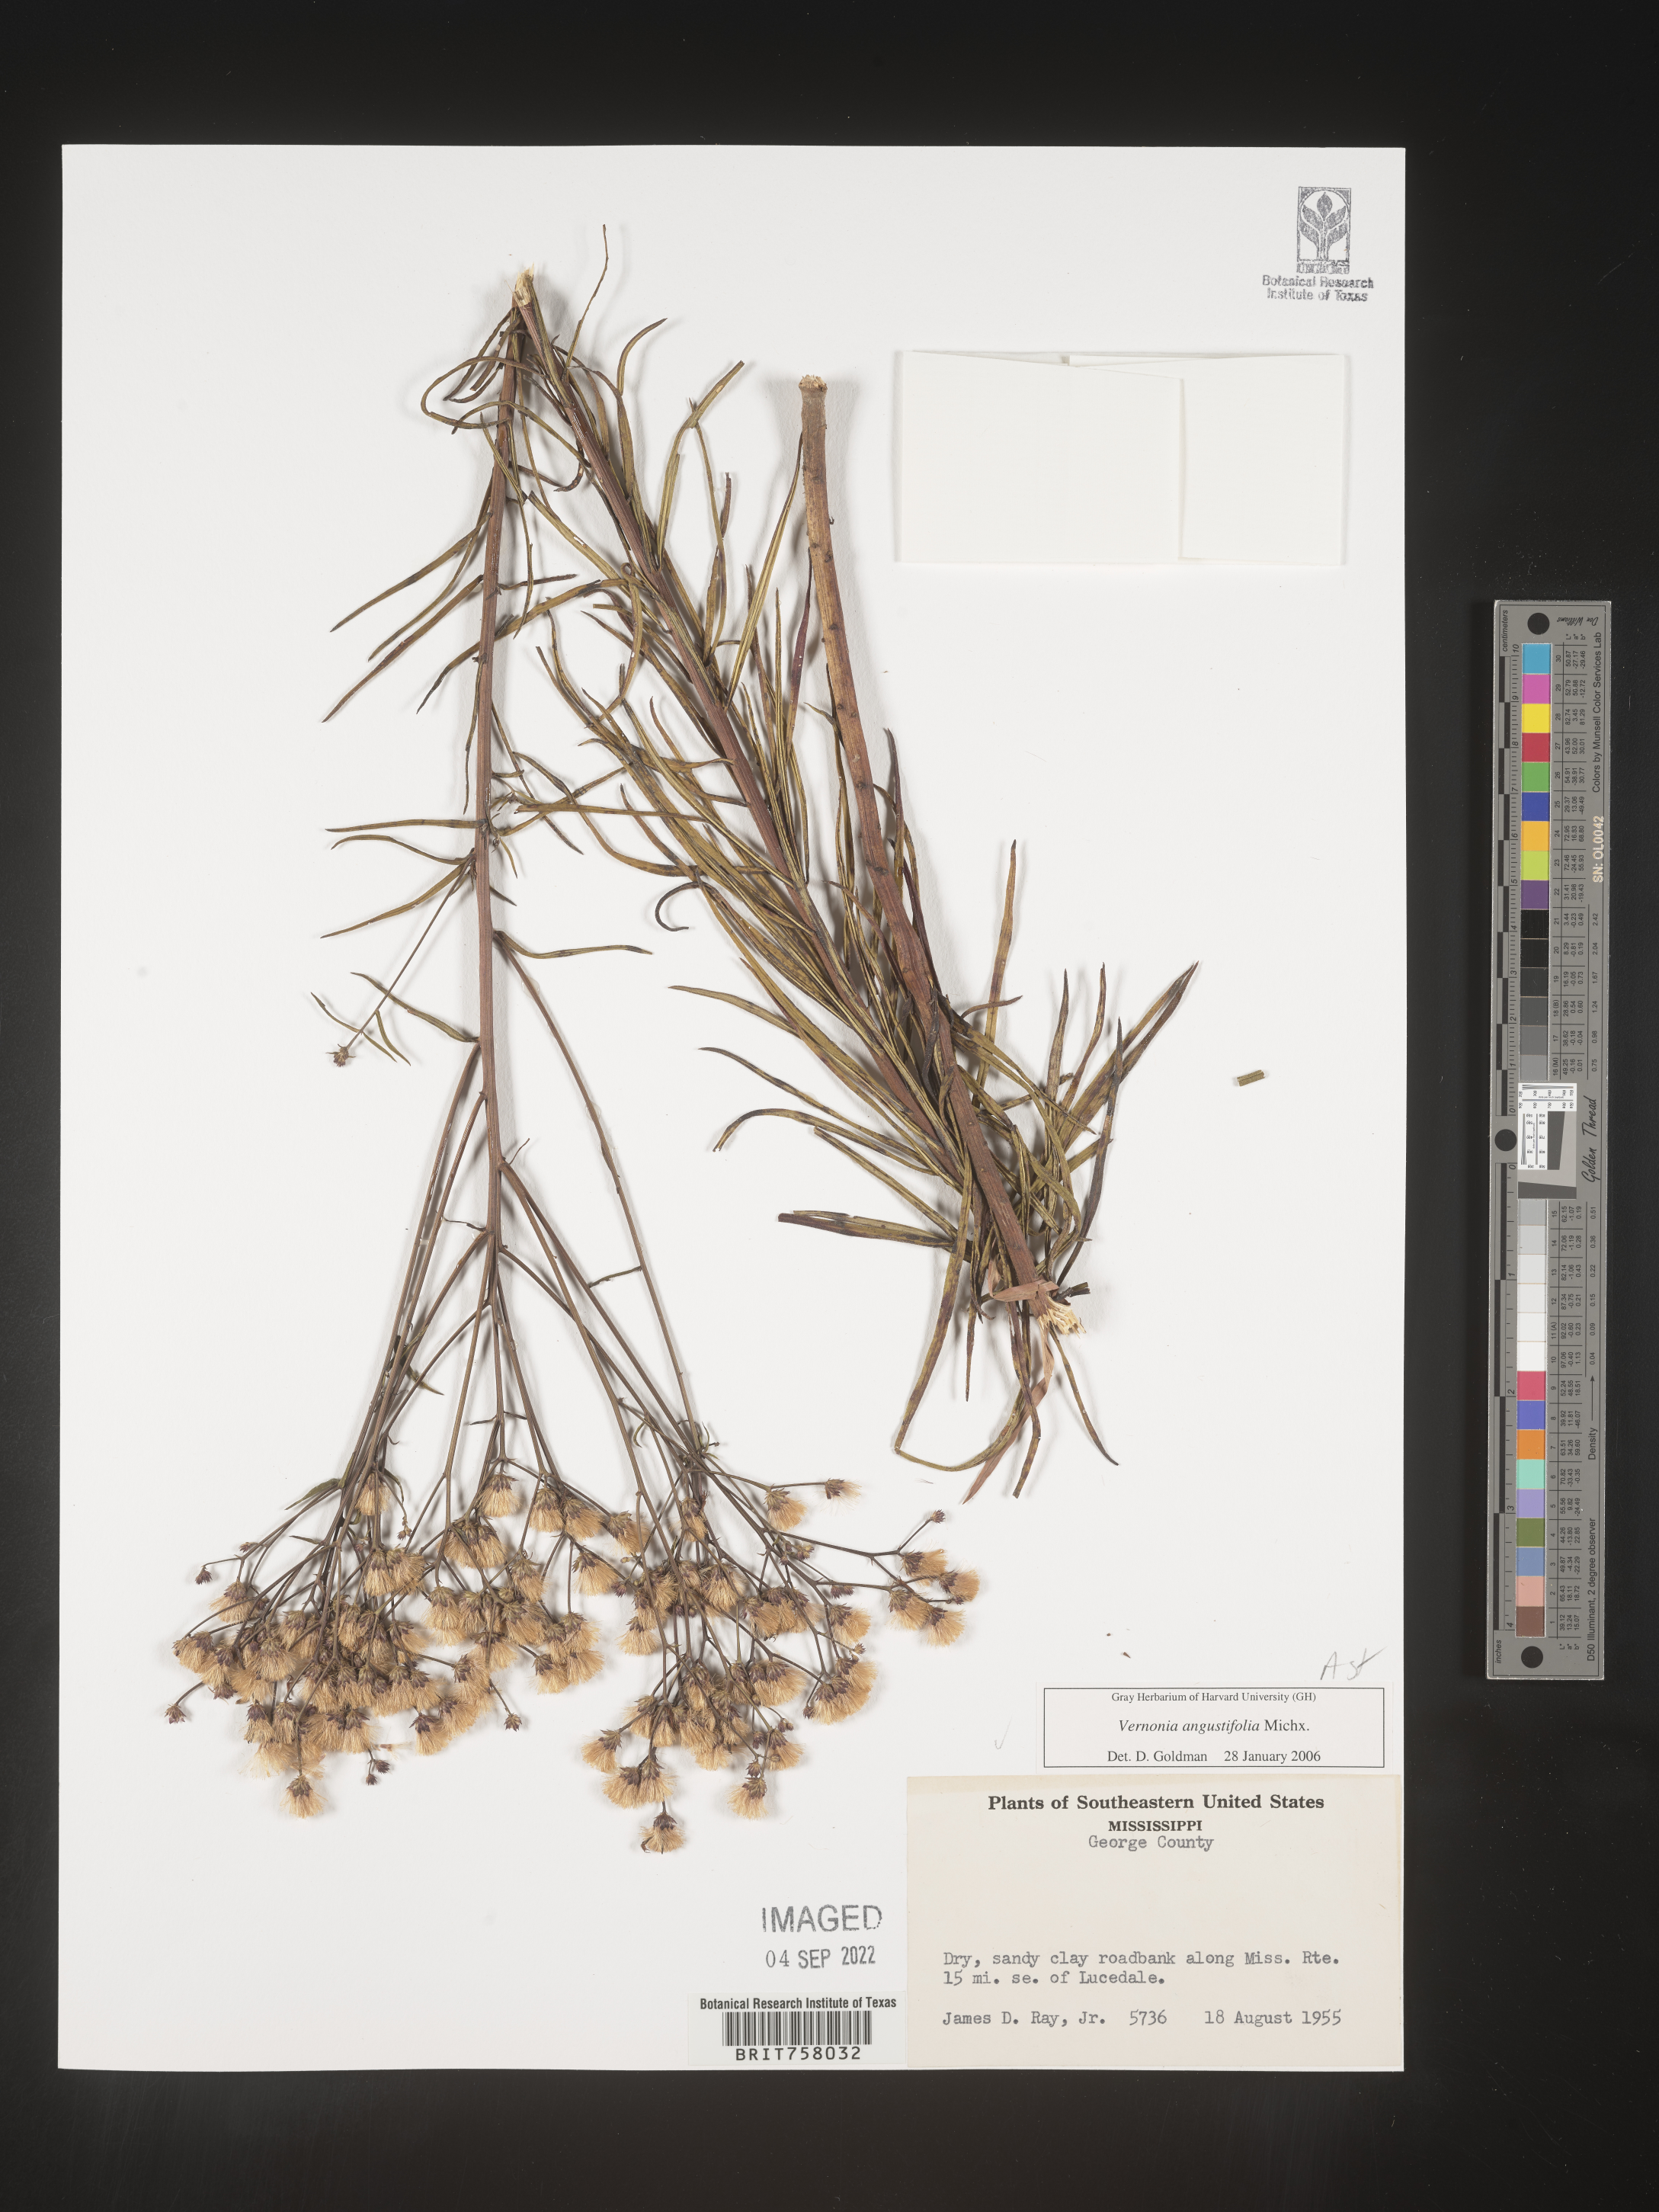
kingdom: Plantae
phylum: Tracheophyta
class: Magnoliopsida
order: Asterales
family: Asteraceae
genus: Vernonia
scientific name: Vernonia angustifolia
